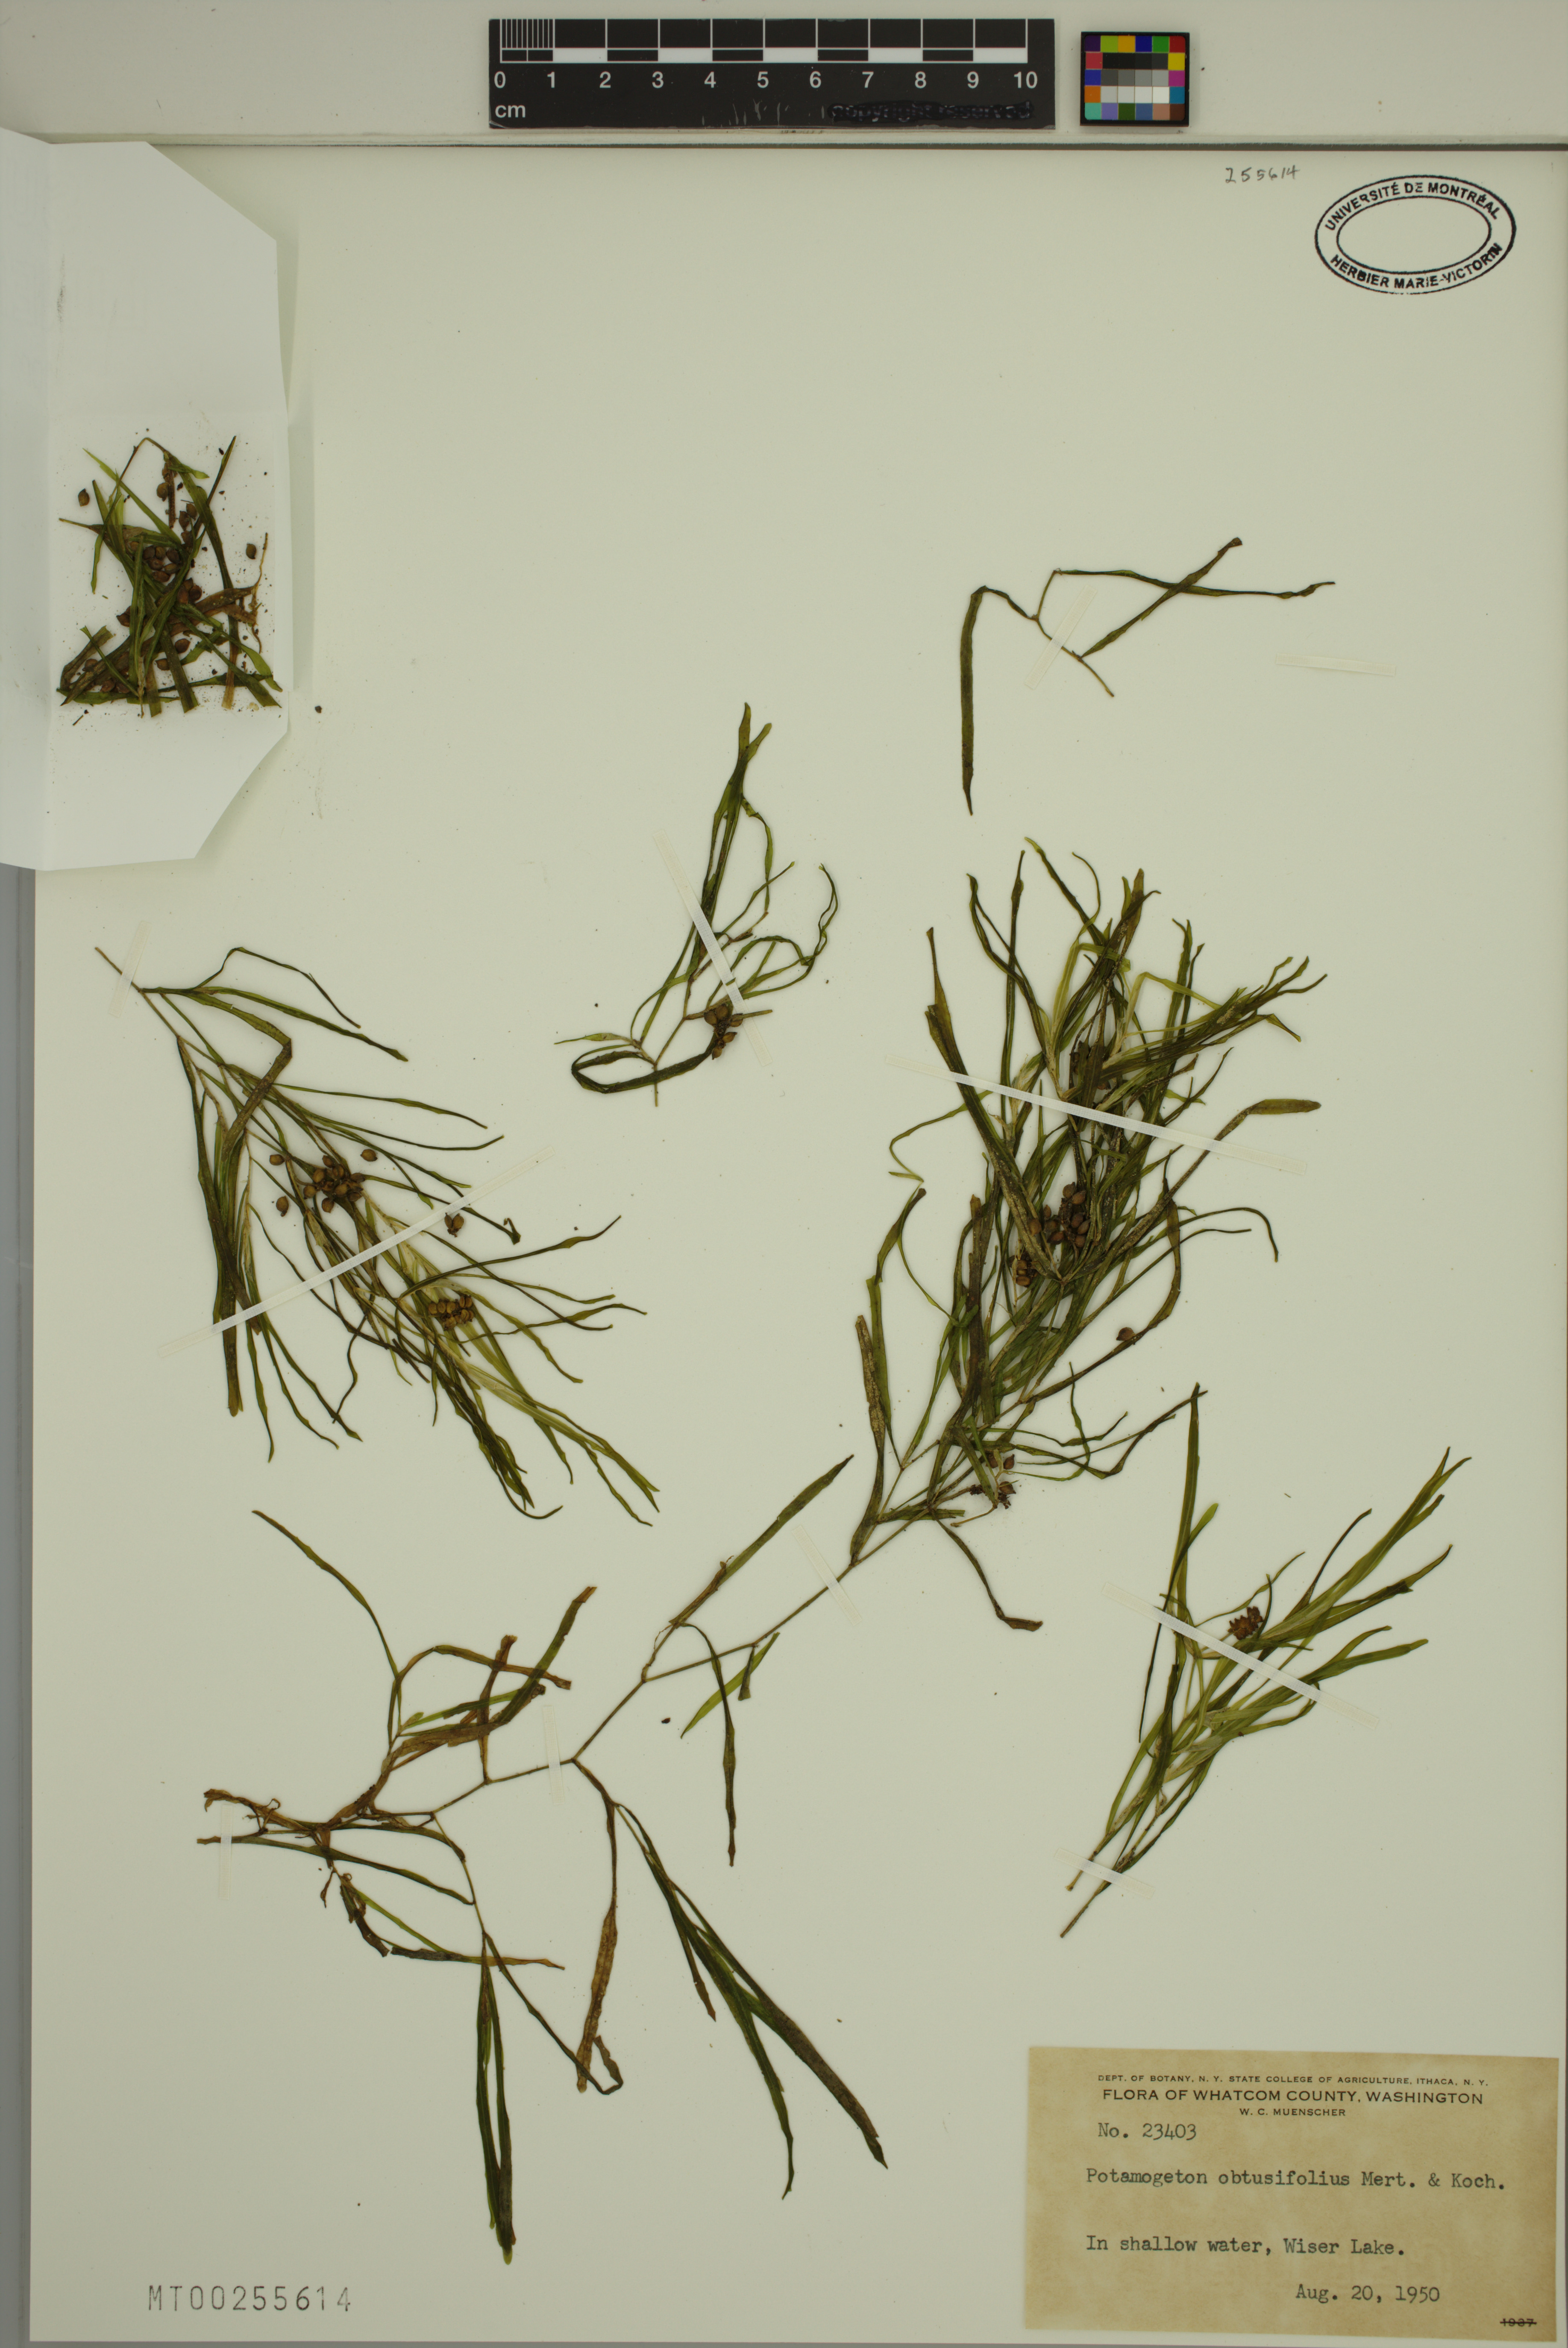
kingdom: Plantae
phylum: Tracheophyta
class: Liliopsida
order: Alismatales
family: Potamogetonaceae
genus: Potamogeton
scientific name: Potamogeton obtusifolius
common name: Blunt-leaved pondweed
